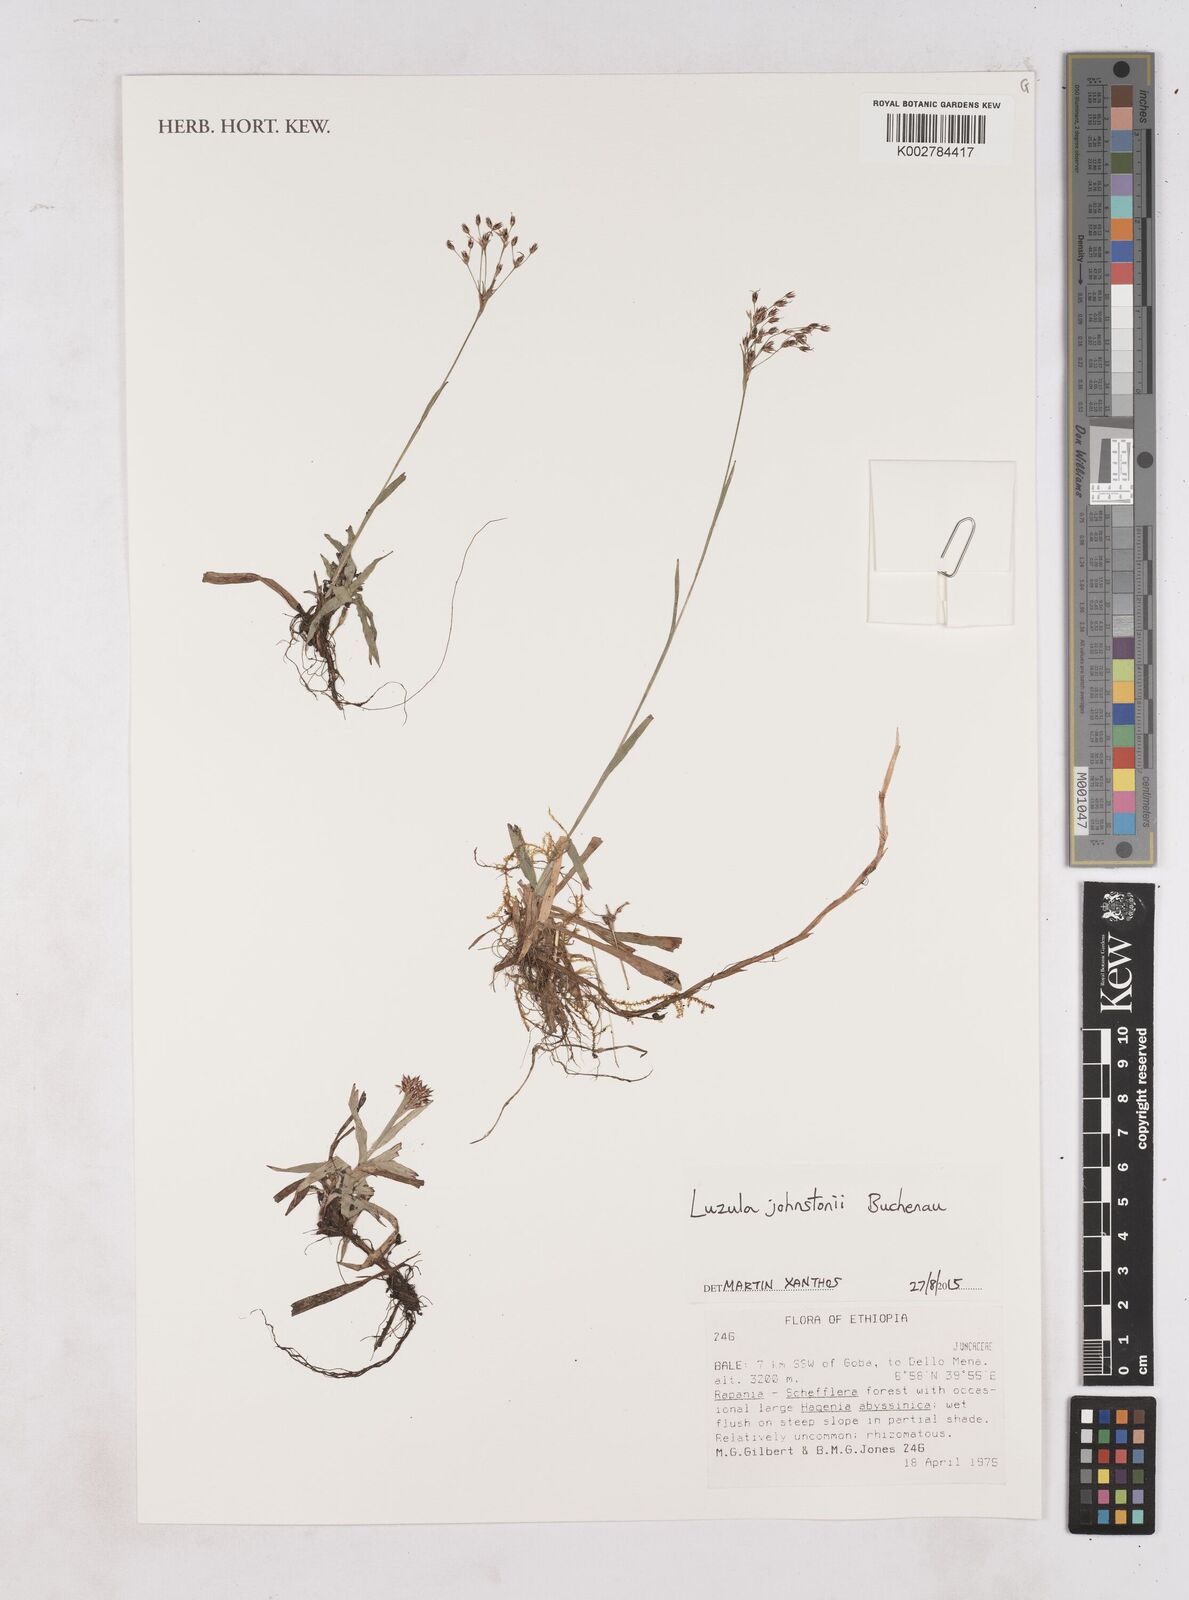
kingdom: Plantae
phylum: Tracheophyta
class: Liliopsida
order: Poales
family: Juncaceae
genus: Luzula
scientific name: Luzula johnstonii
